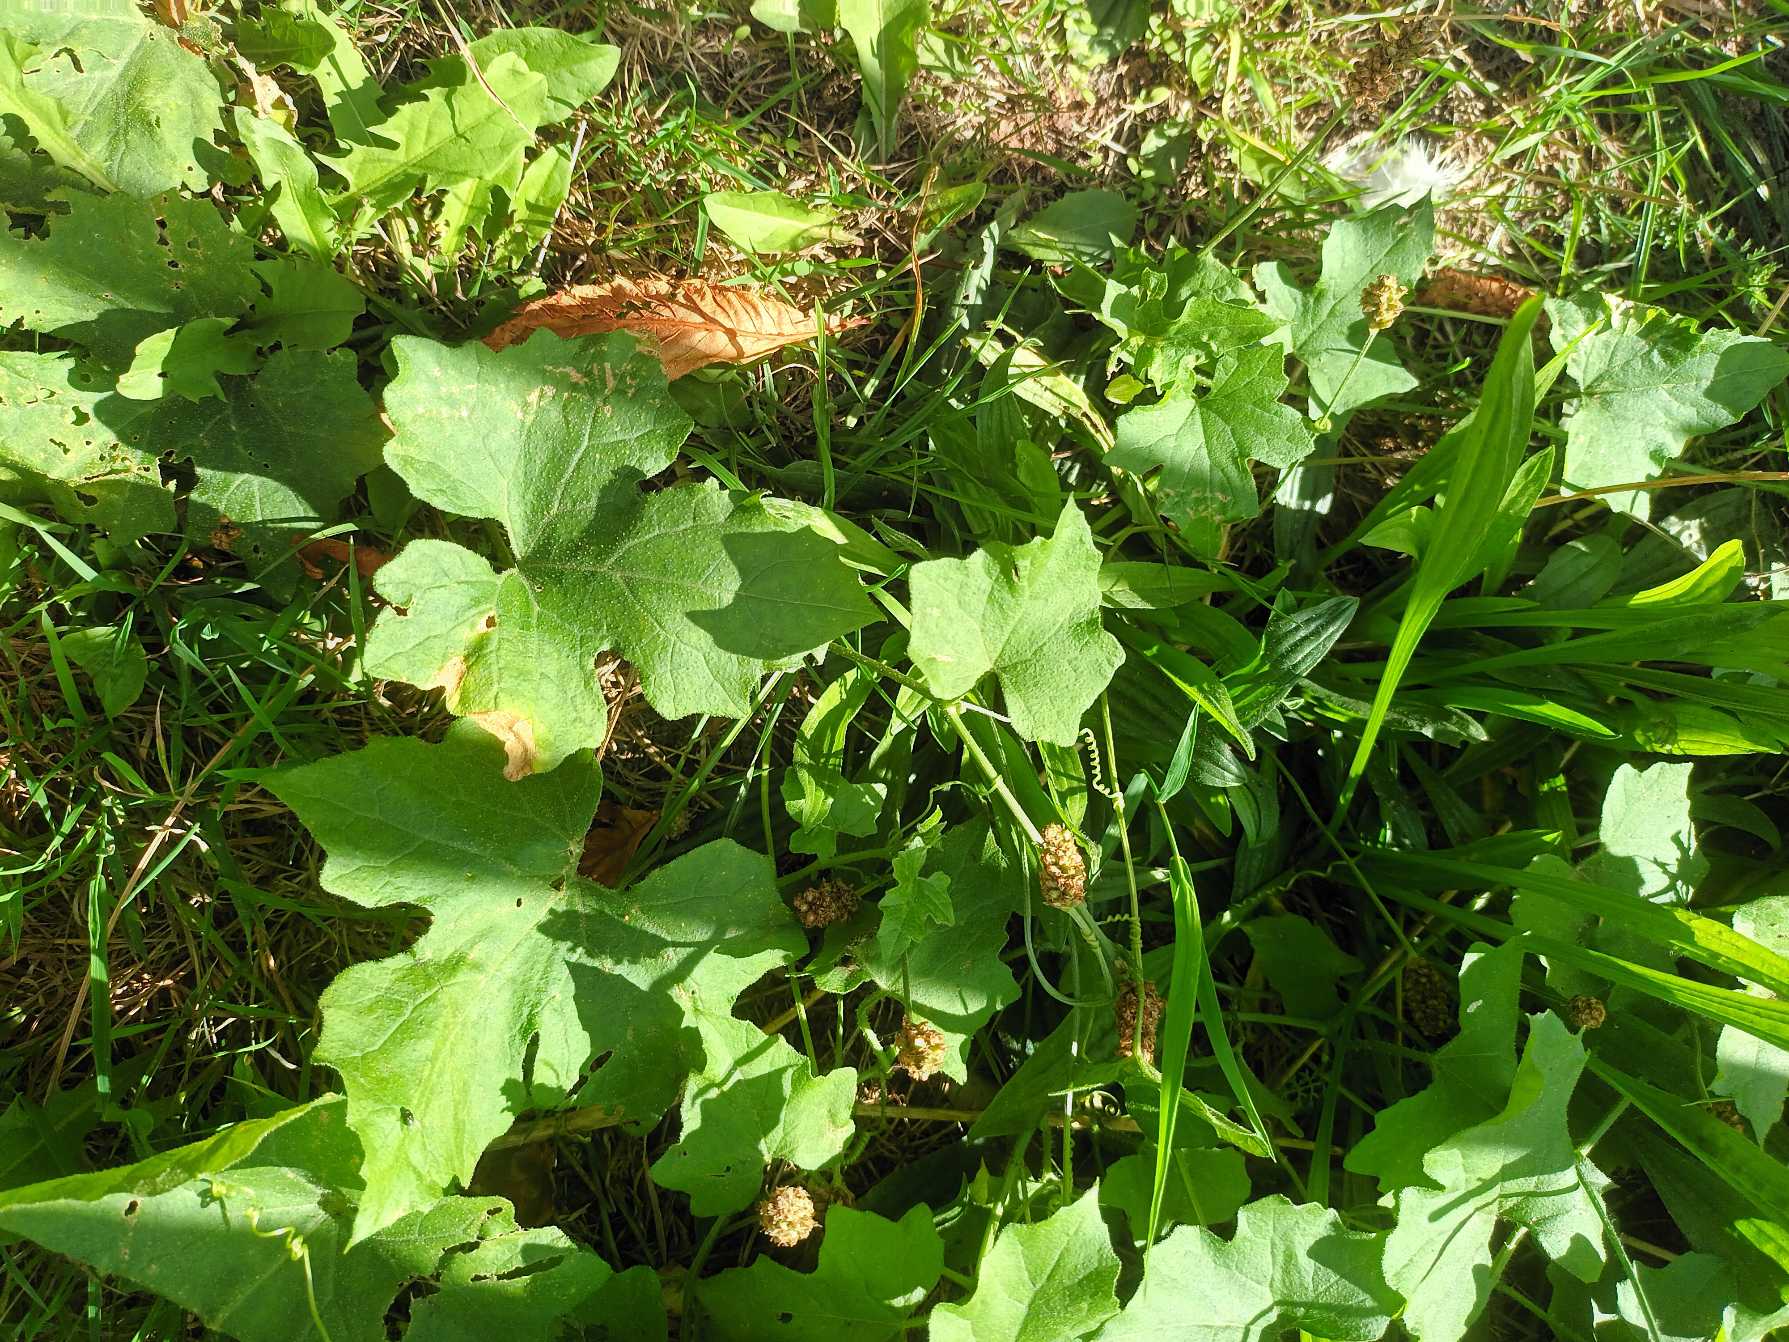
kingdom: Plantae
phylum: Tracheophyta
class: Magnoliopsida
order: Cucurbitales
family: Cucurbitaceae
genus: Bryonia
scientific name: Bryonia dioica
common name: Tvebo galdebær
